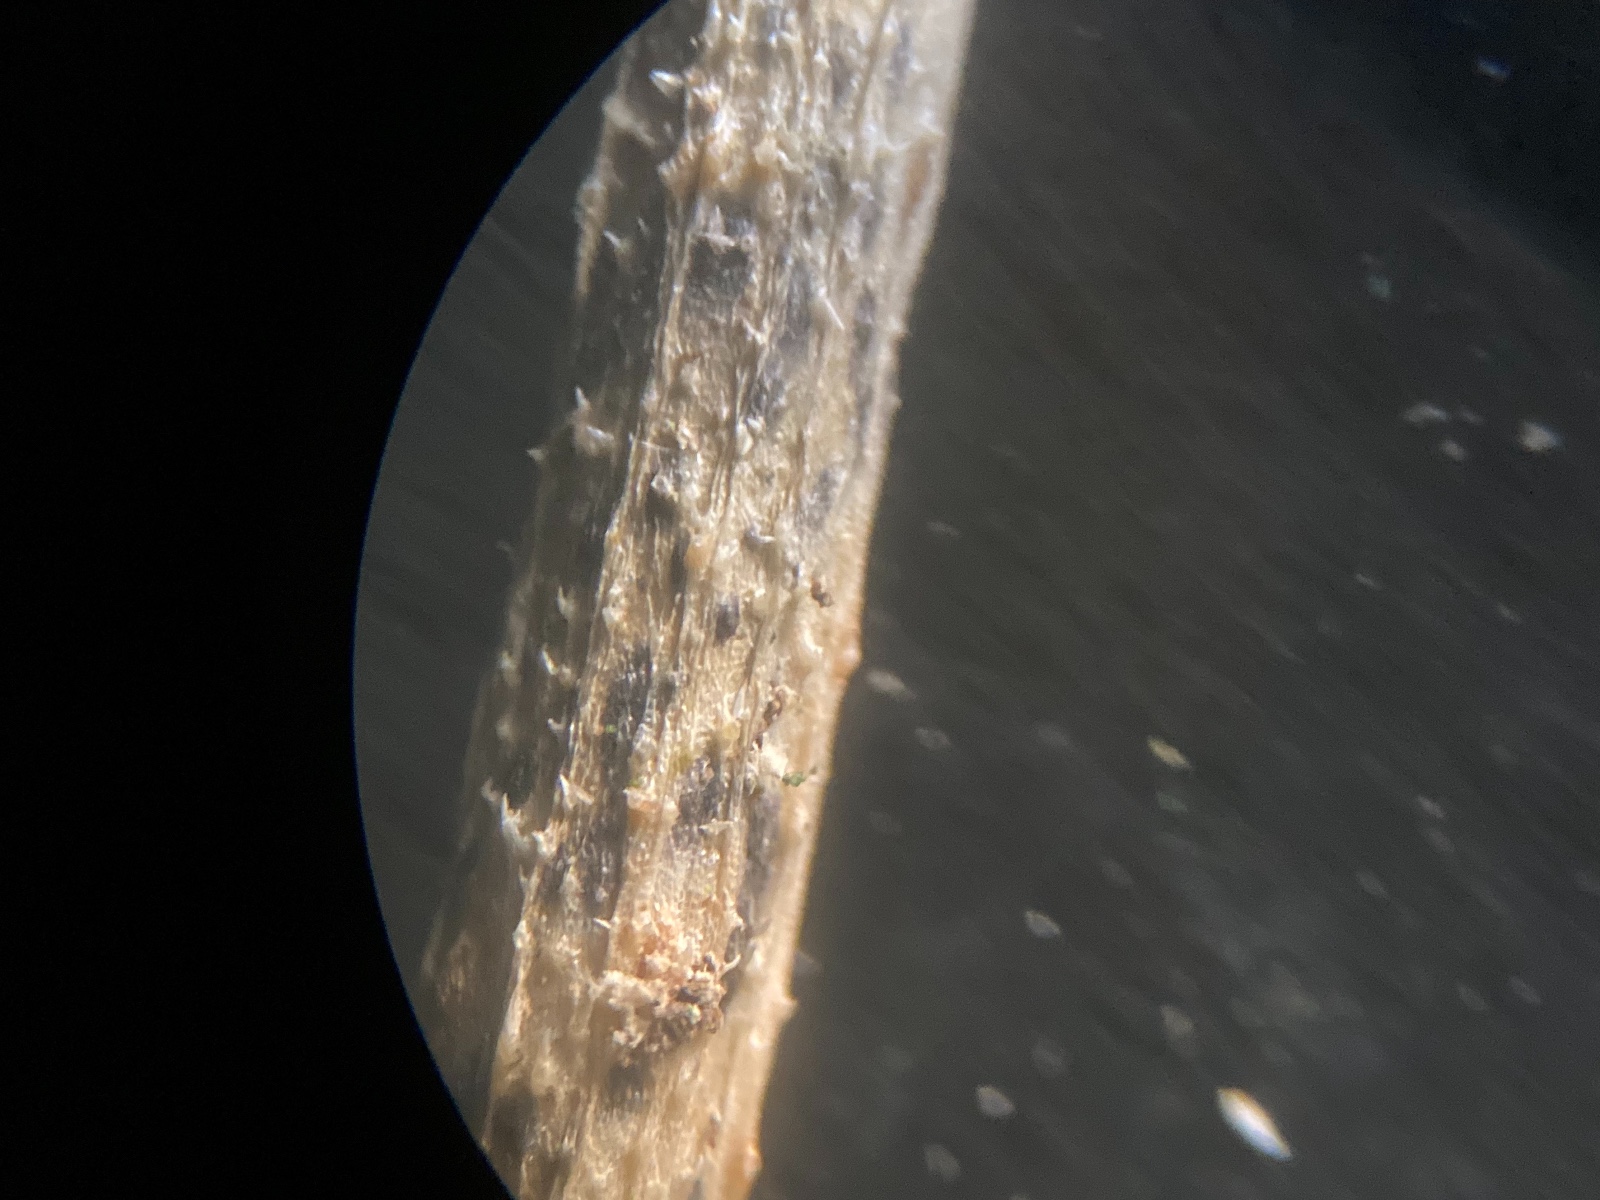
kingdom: Fungi
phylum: Ascomycota
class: Sordariomycetes
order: Diaporthales
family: Diaporthaceae
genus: Diaporthe
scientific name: Diaporthe circumscripta
